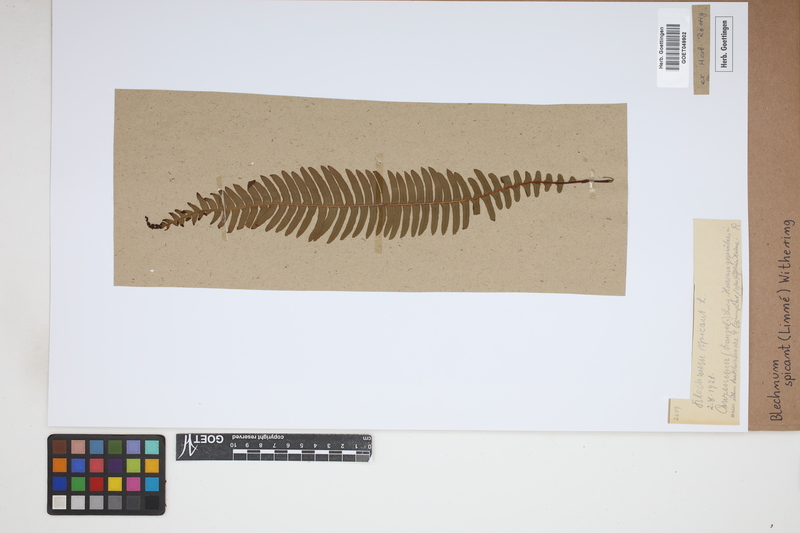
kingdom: Plantae
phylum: Tracheophyta
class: Polypodiopsida
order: Polypodiales
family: Blechnaceae
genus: Struthiopteris
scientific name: Struthiopteris spicant
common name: Deer fern
